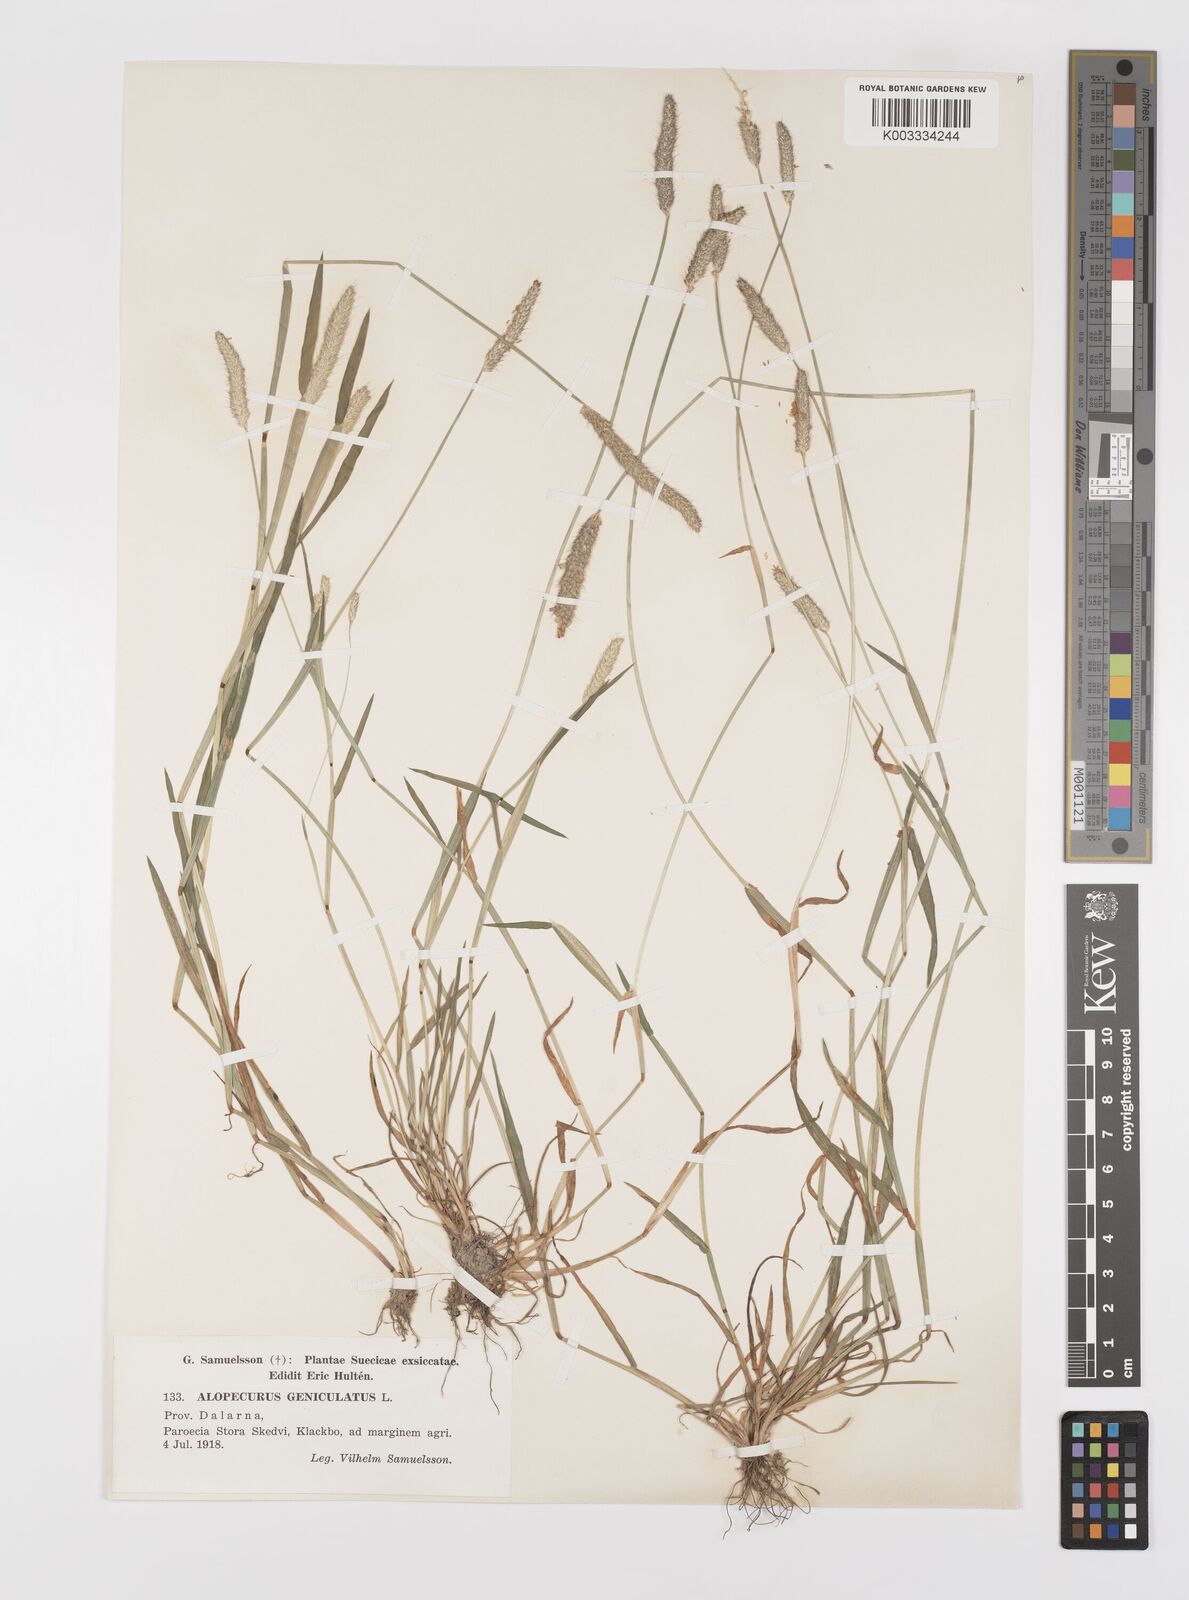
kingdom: Plantae
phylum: Tracheophyta
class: Liliopsida
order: Poales
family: Poaceae
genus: Alopecurus
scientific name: Alopecurus geniculatus
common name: Water foxtail
